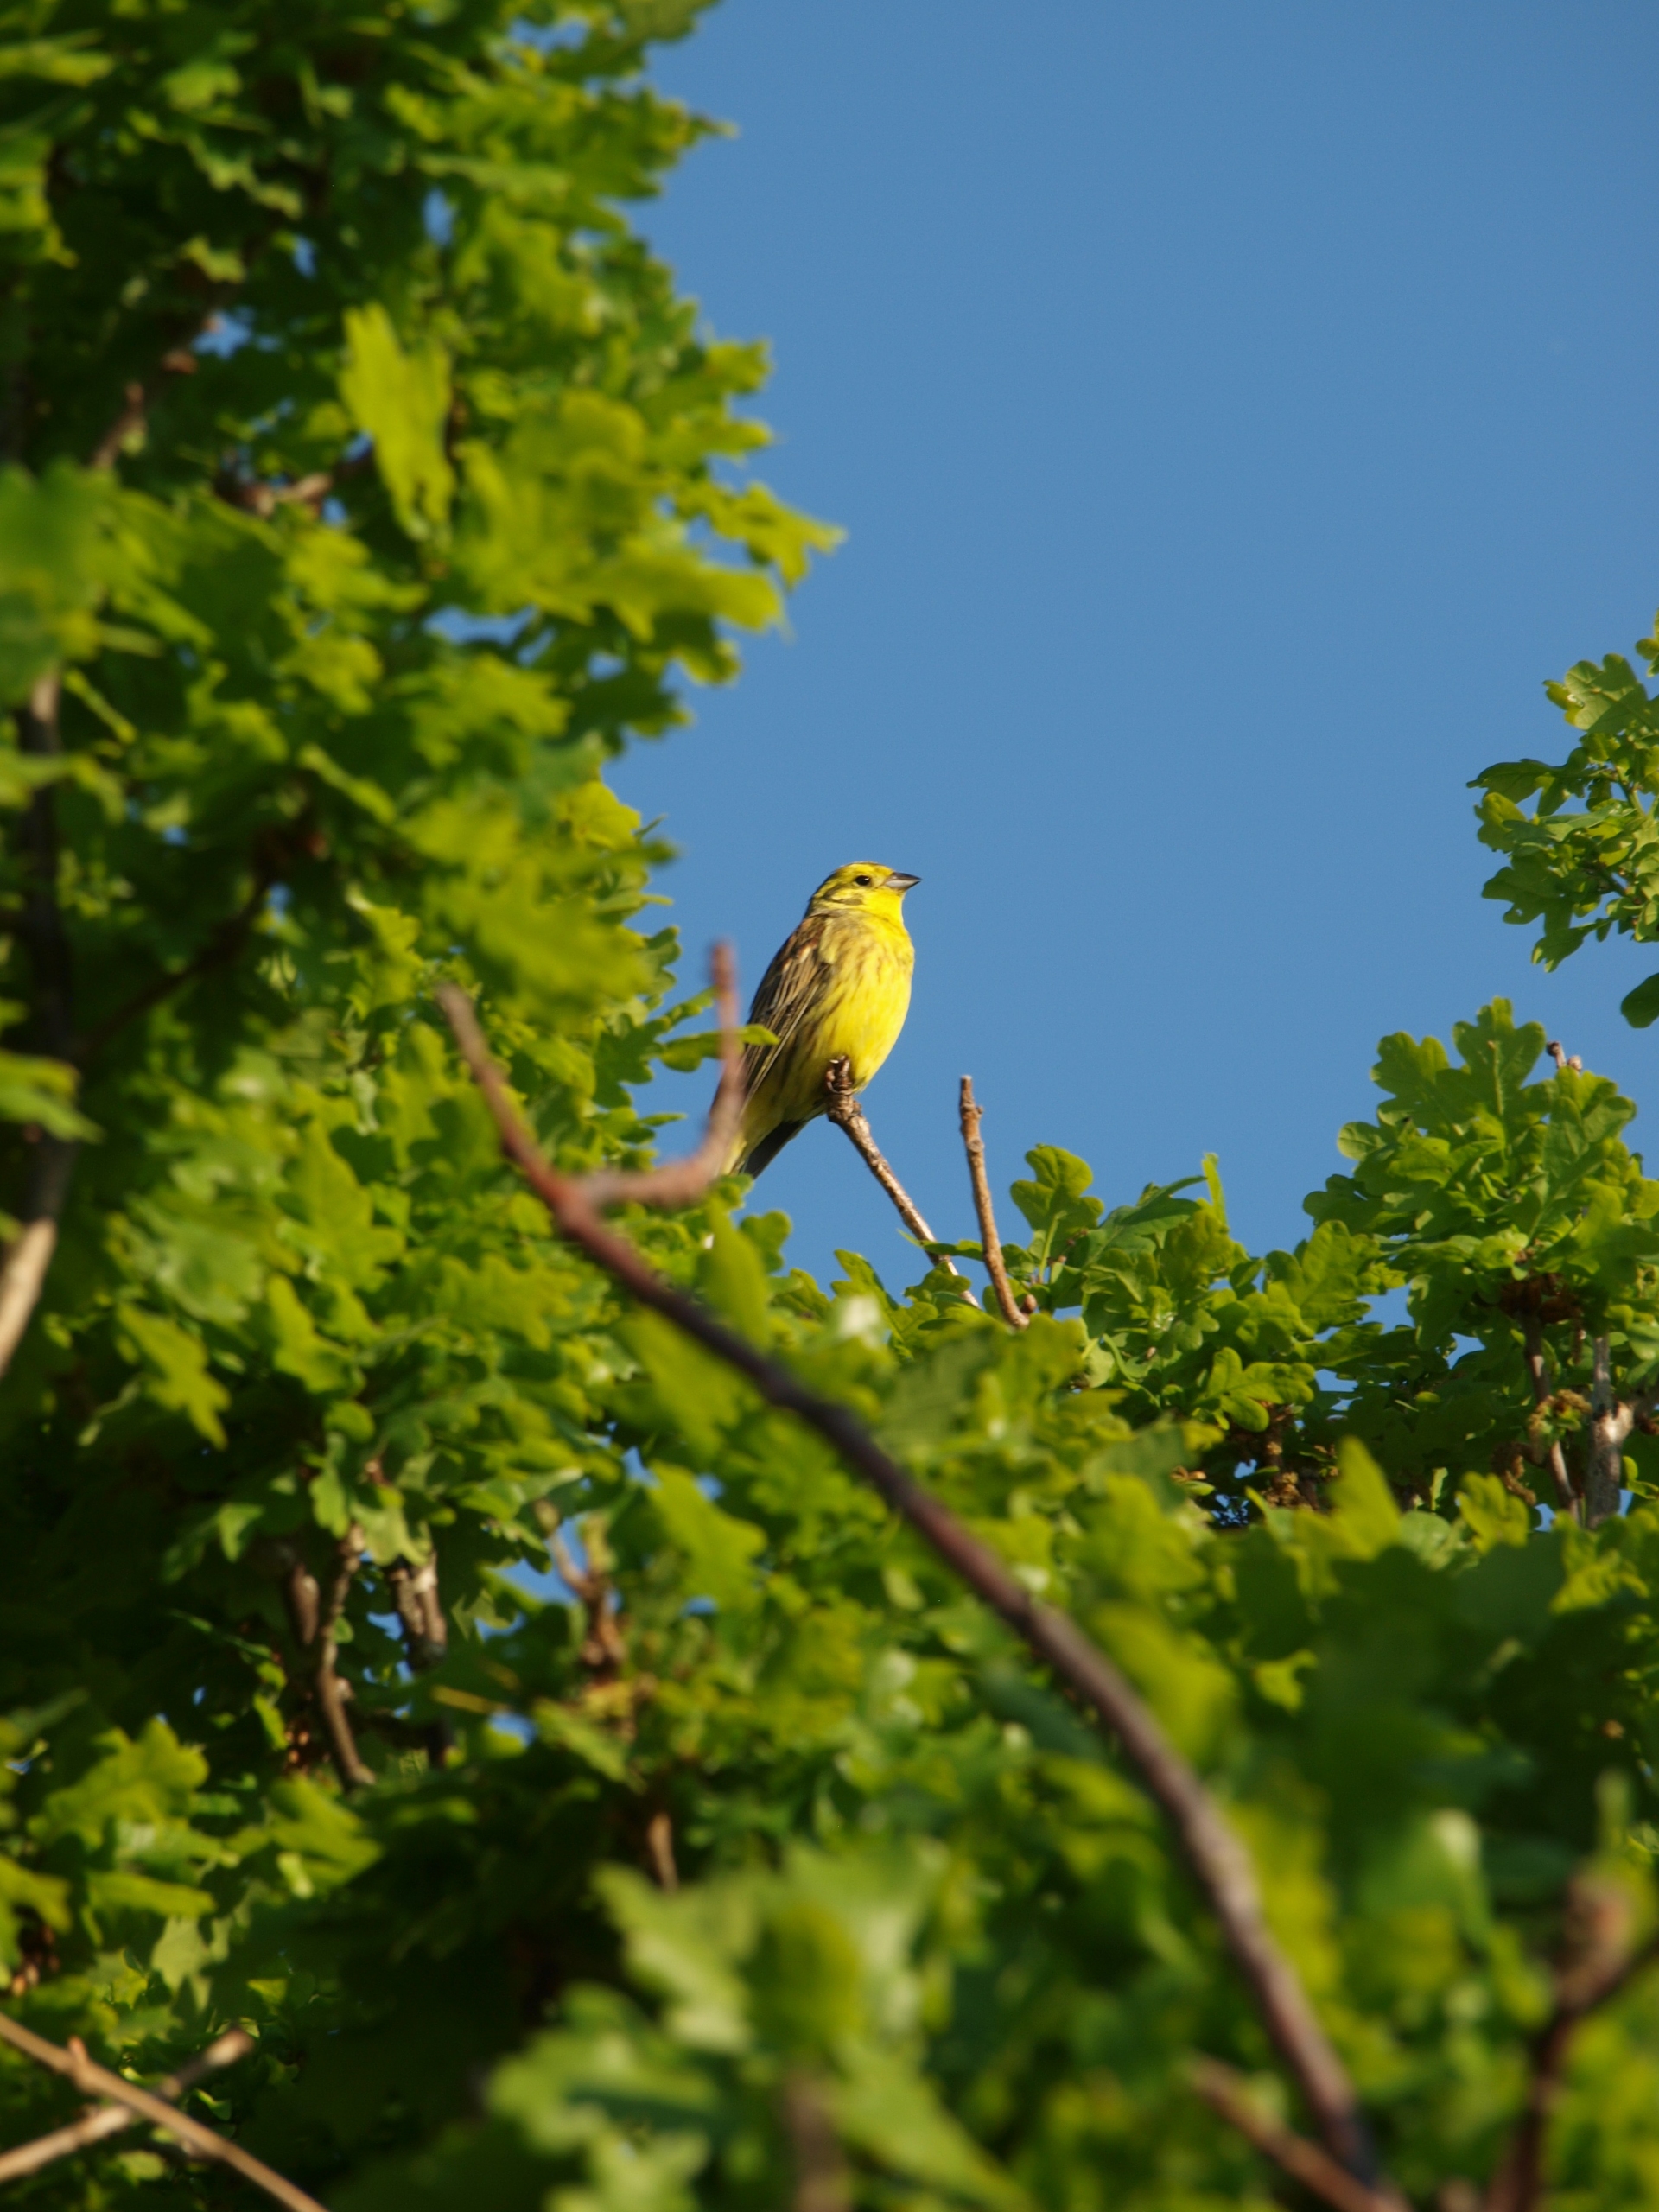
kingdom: Animalia
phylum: Chordata
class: Aves
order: Passeriformes
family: Emberizidae
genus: Emberiza
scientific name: Emberiza citrinella
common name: Gulspurv
